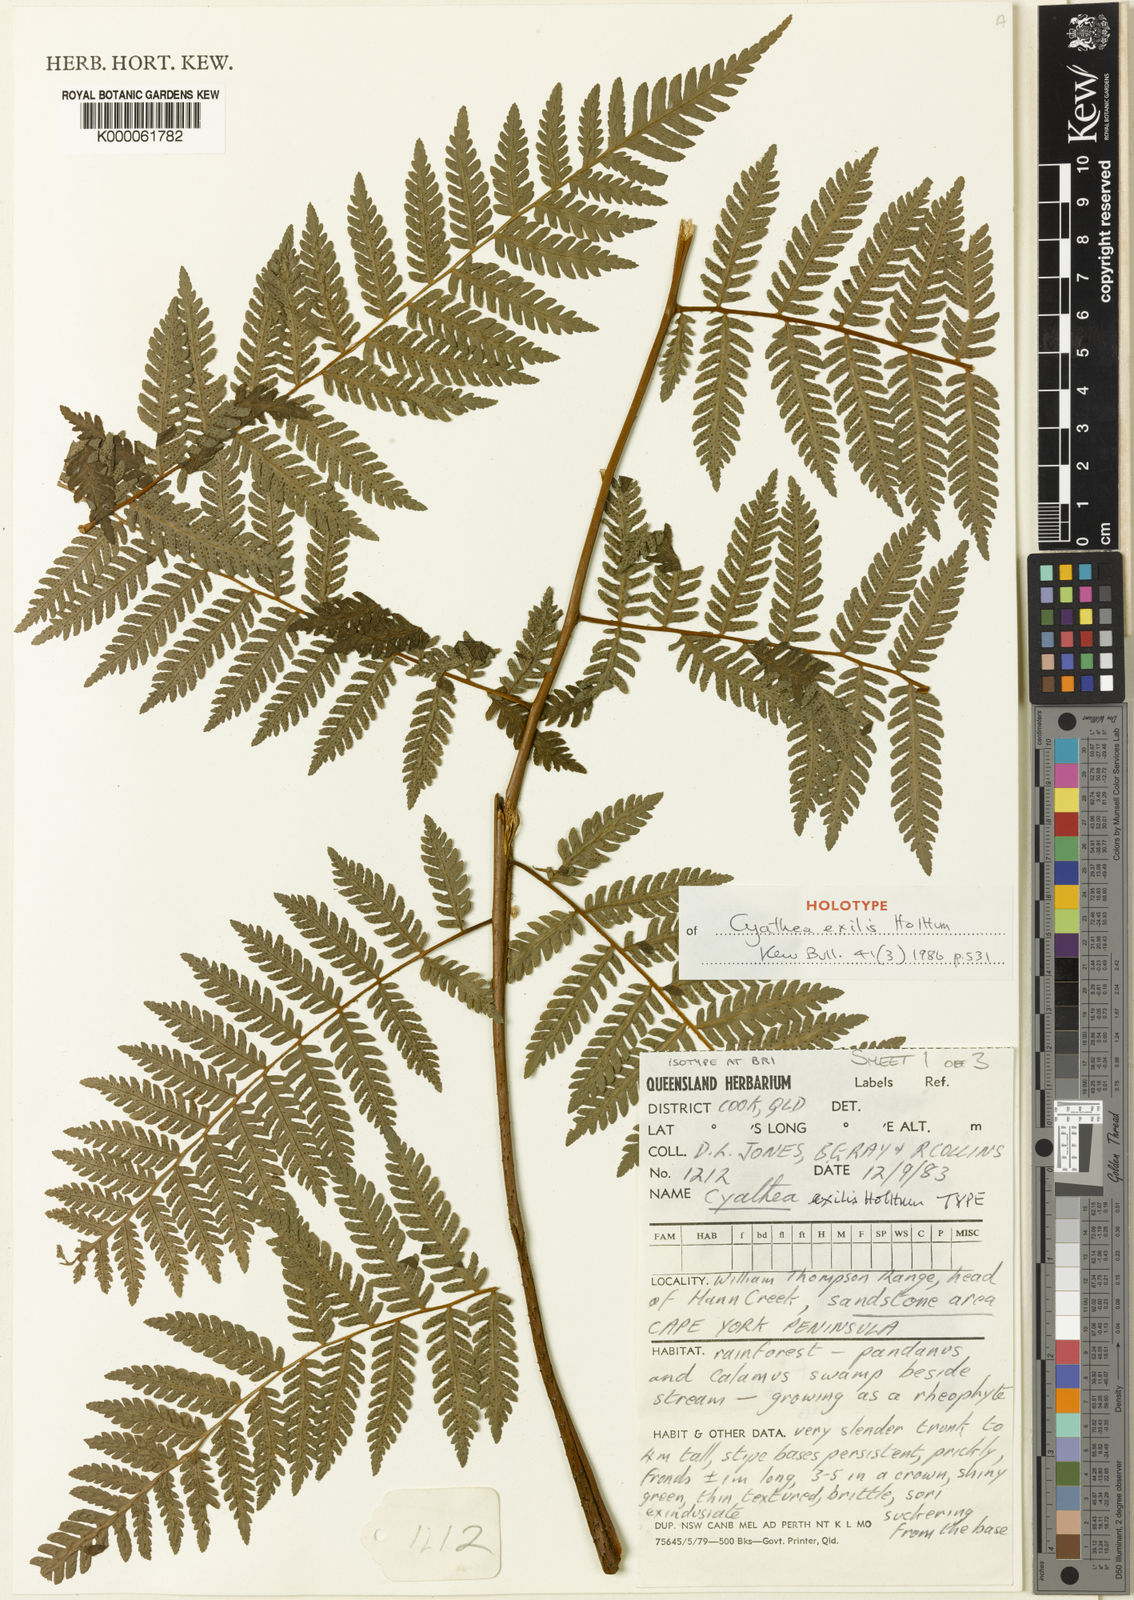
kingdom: Plantae
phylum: Tracheophyta
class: Polypodiopsida
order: Cyatheales
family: Cyatheaceae
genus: Alsophila
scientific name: Alsophila exilis
